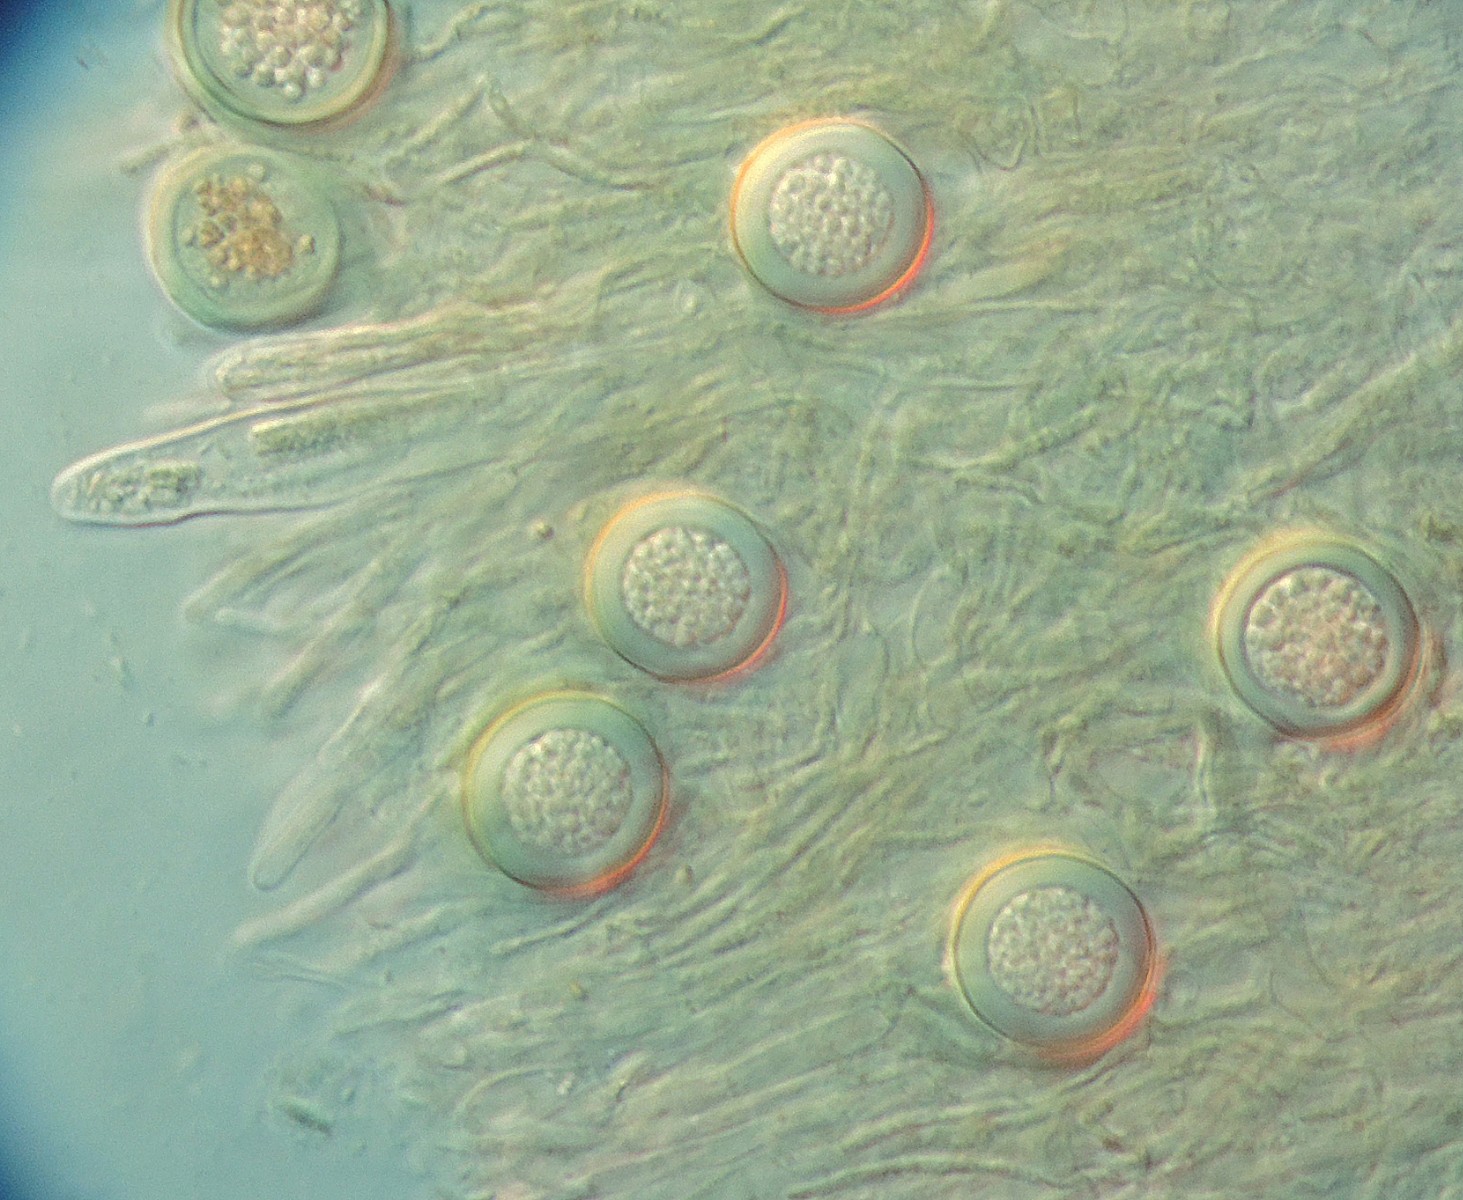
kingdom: Fungi
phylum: Ascomycota
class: Sordariomycetes
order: Hypocreales
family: Hypocreaceae
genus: Hypomyces
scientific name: Hypomyces leotiicola
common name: ravsvamp-snylteskorpe
